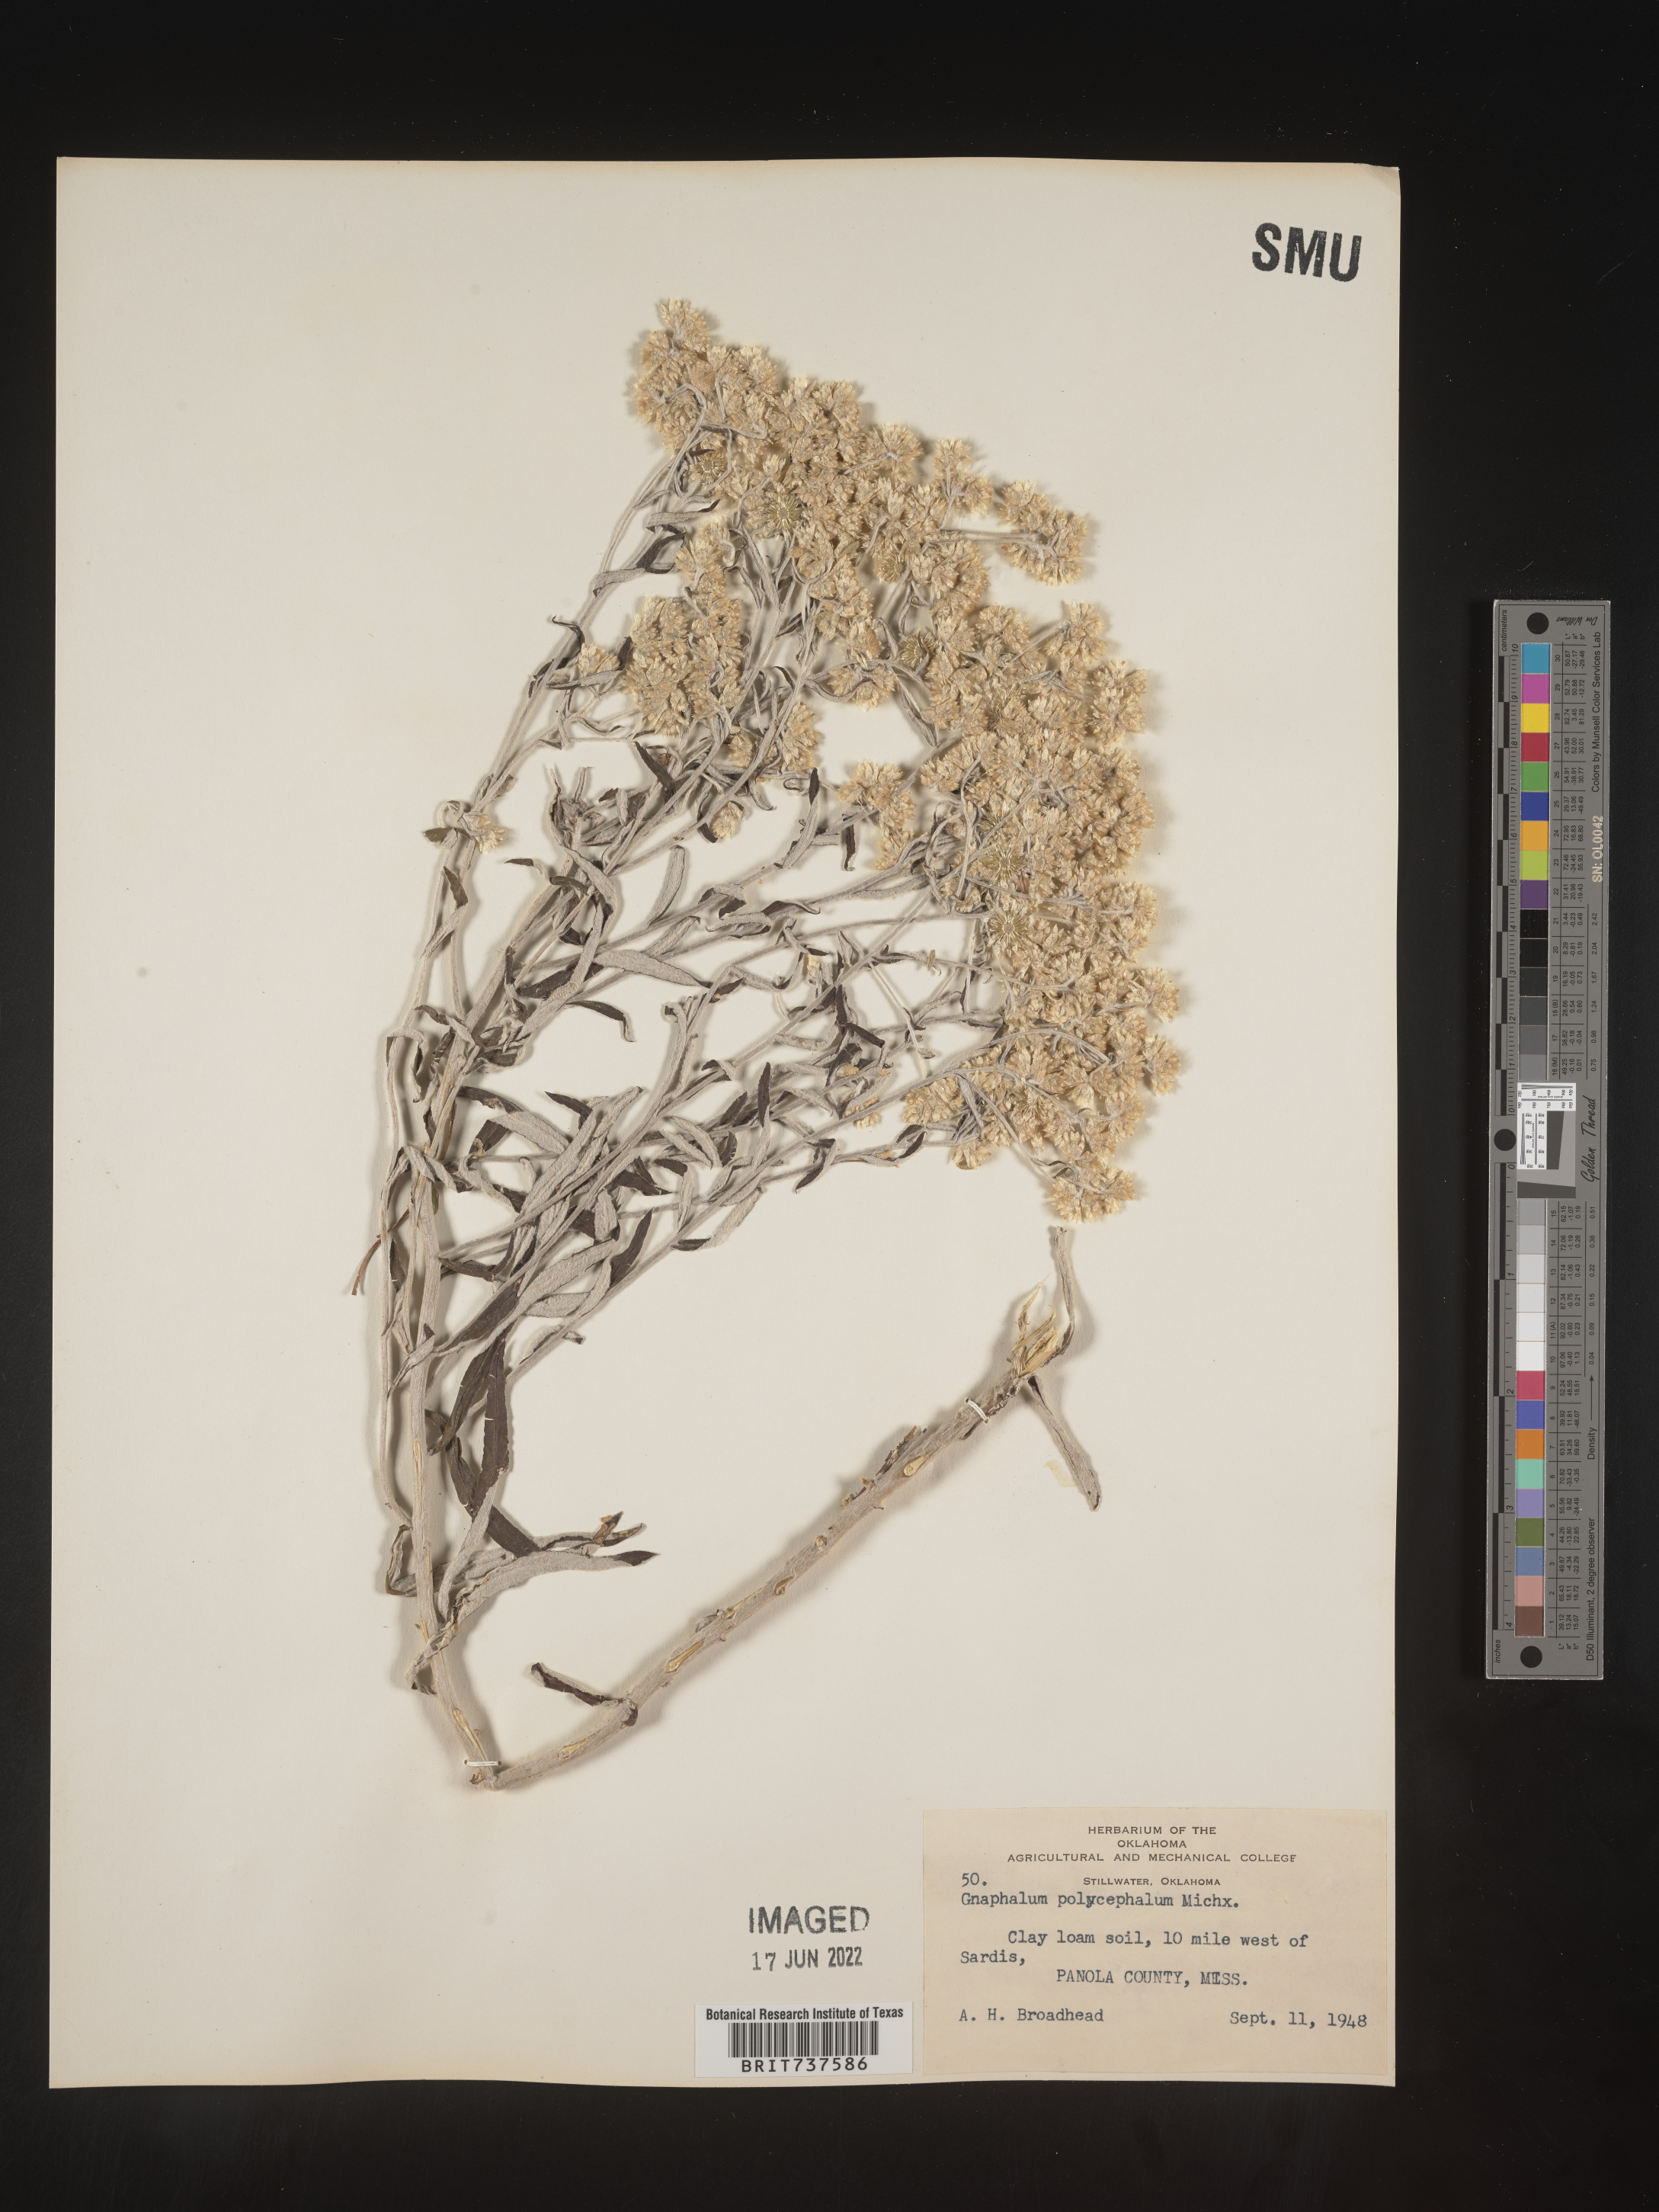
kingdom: Plantae
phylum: Tracheophyta
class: Magnoliopsida
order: Asterales
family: Asteraceae
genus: Pseudognaphalium
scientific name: Pseudognaphalium obtusifolium
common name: Eastern rabbit-tobacco
